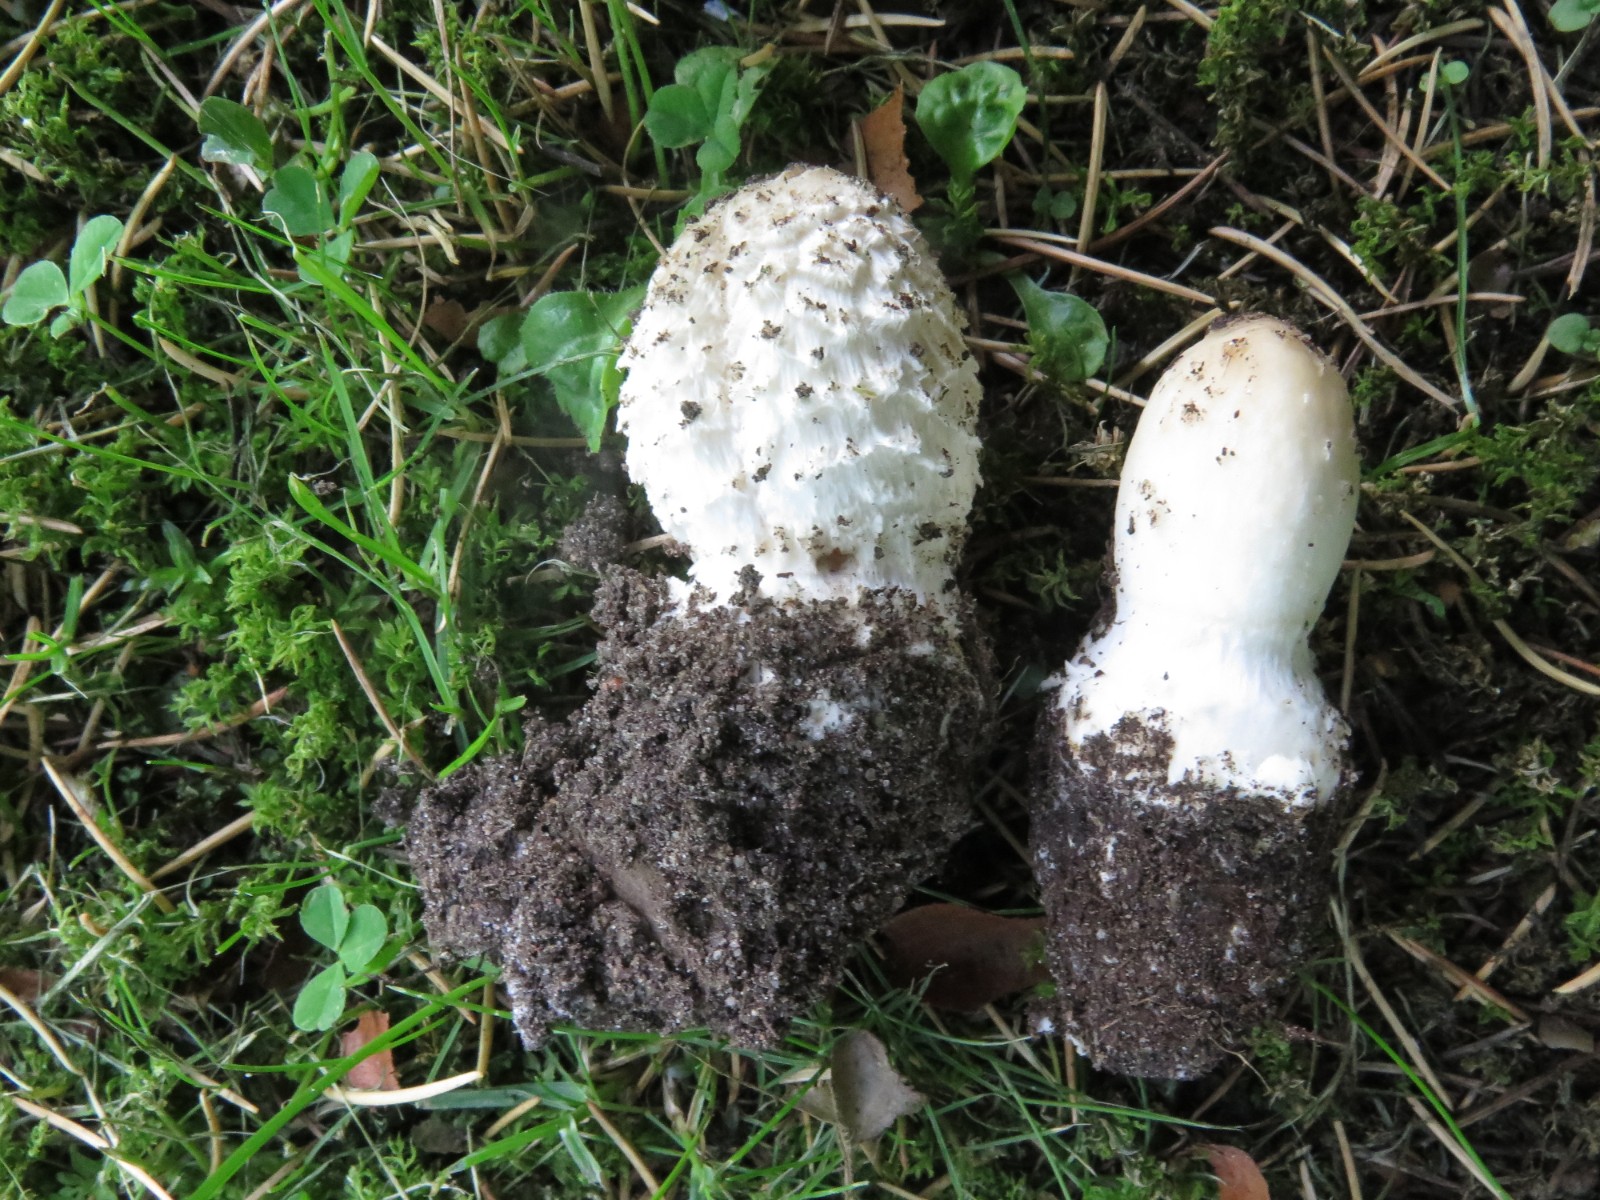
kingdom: Fungi
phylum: Basidiomycota
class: Agaricomycetes
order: Agaricales
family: Agaricaceae
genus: Coprinus
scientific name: Coprinus comatus
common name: stor parykhat
